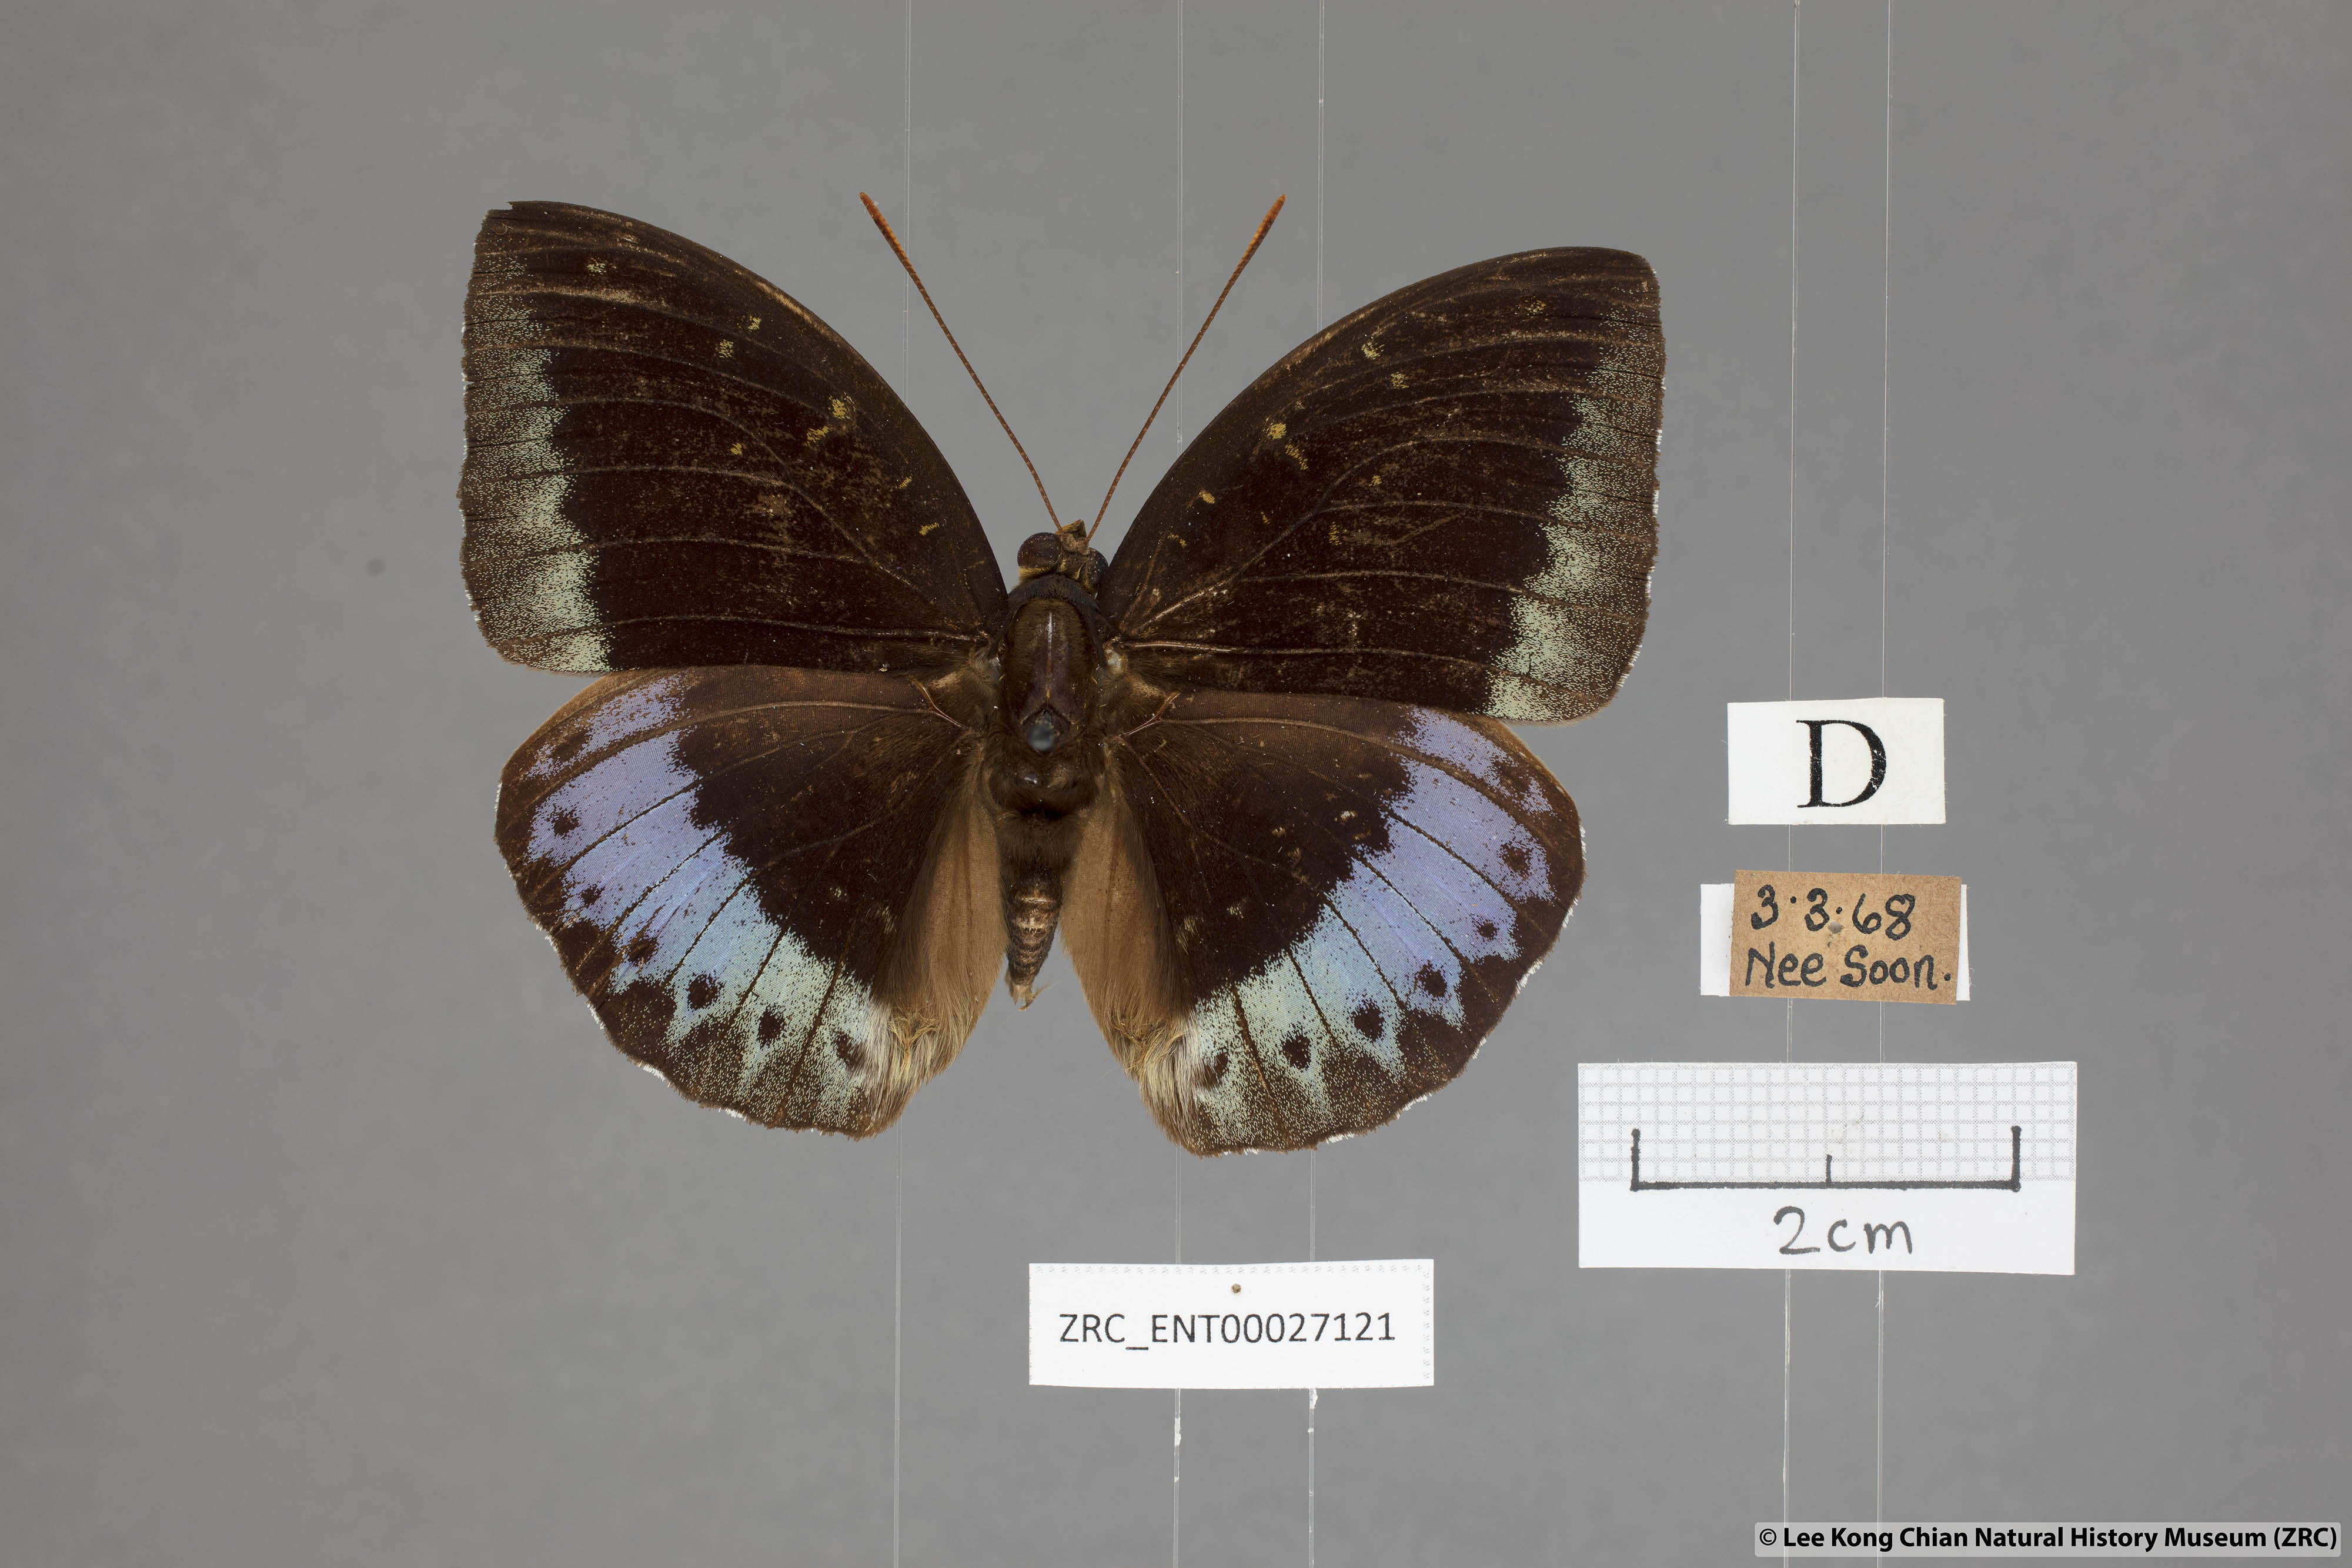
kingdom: Animalia
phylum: Arthropoda
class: Insecta
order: Lepidoptera
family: Nymphalidae
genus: Lexias
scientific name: Lexias pardalis
